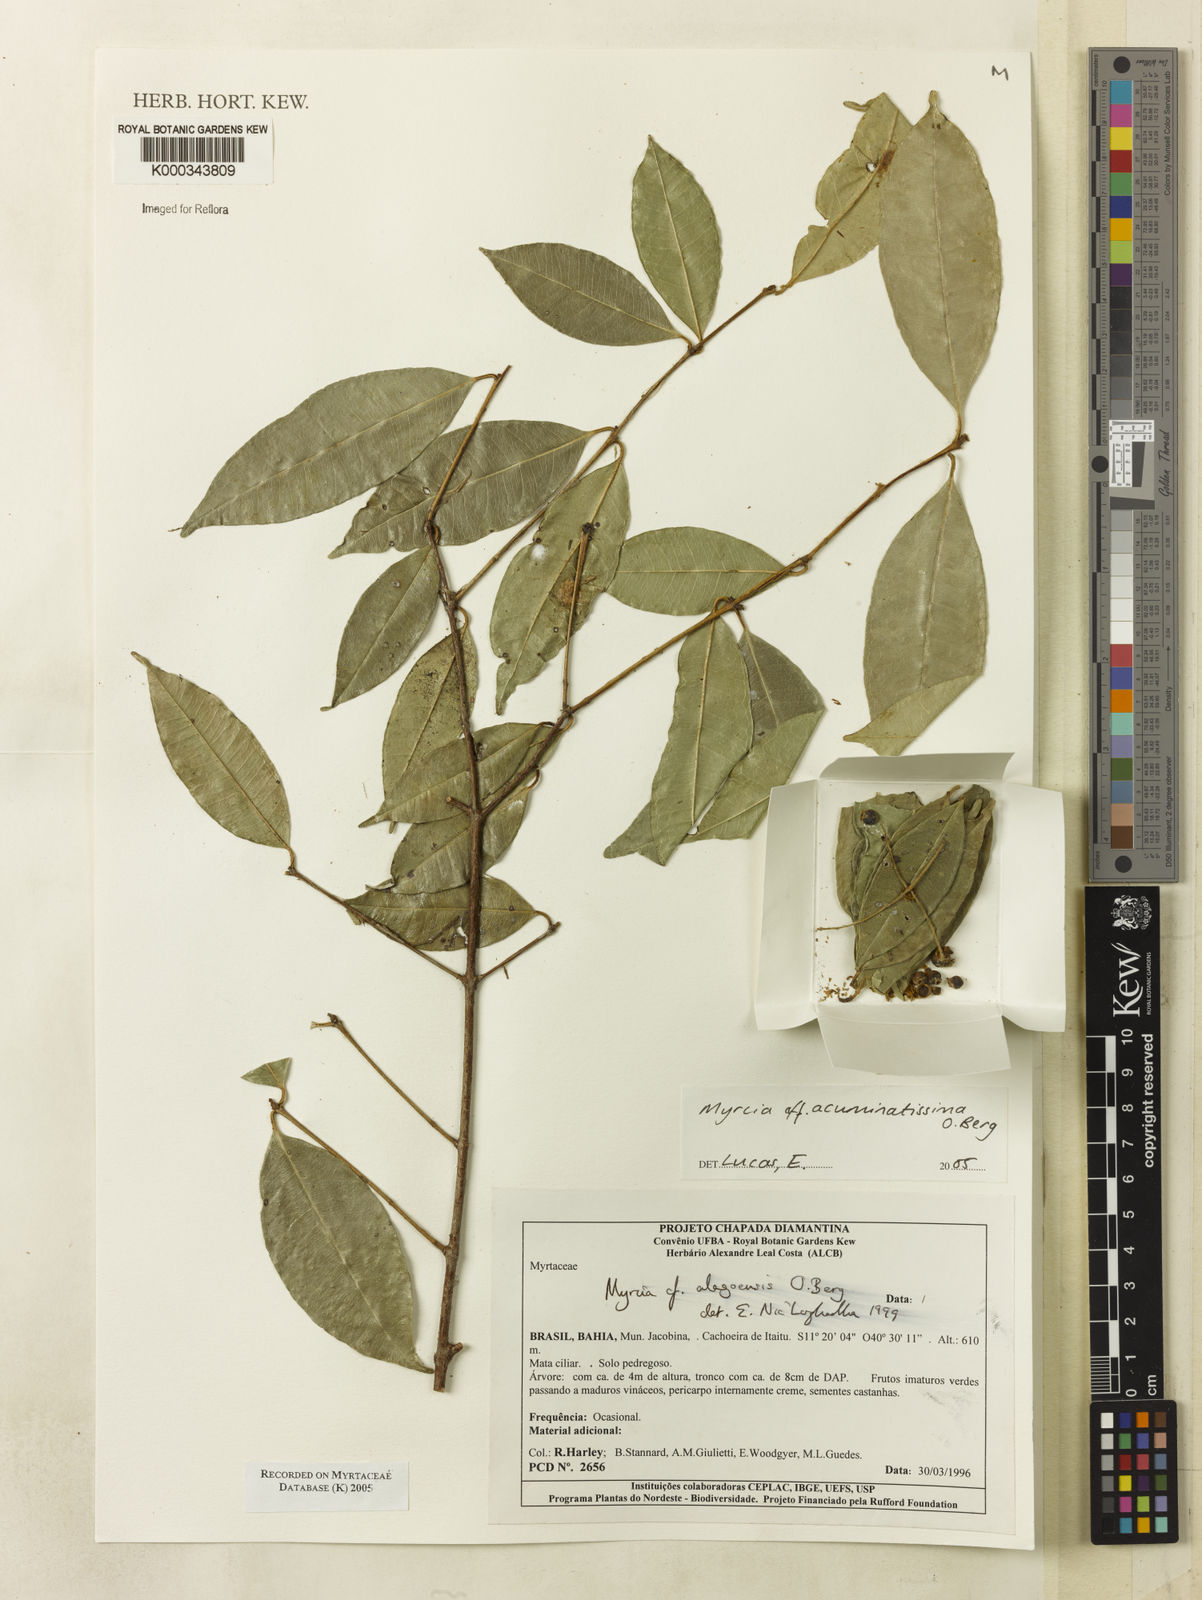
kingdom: Plantae
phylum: Tracheophyta
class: Magnoliopsida
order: Myrtales
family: Myrtaceae
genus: Myrcia
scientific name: Myrcia racemosa
